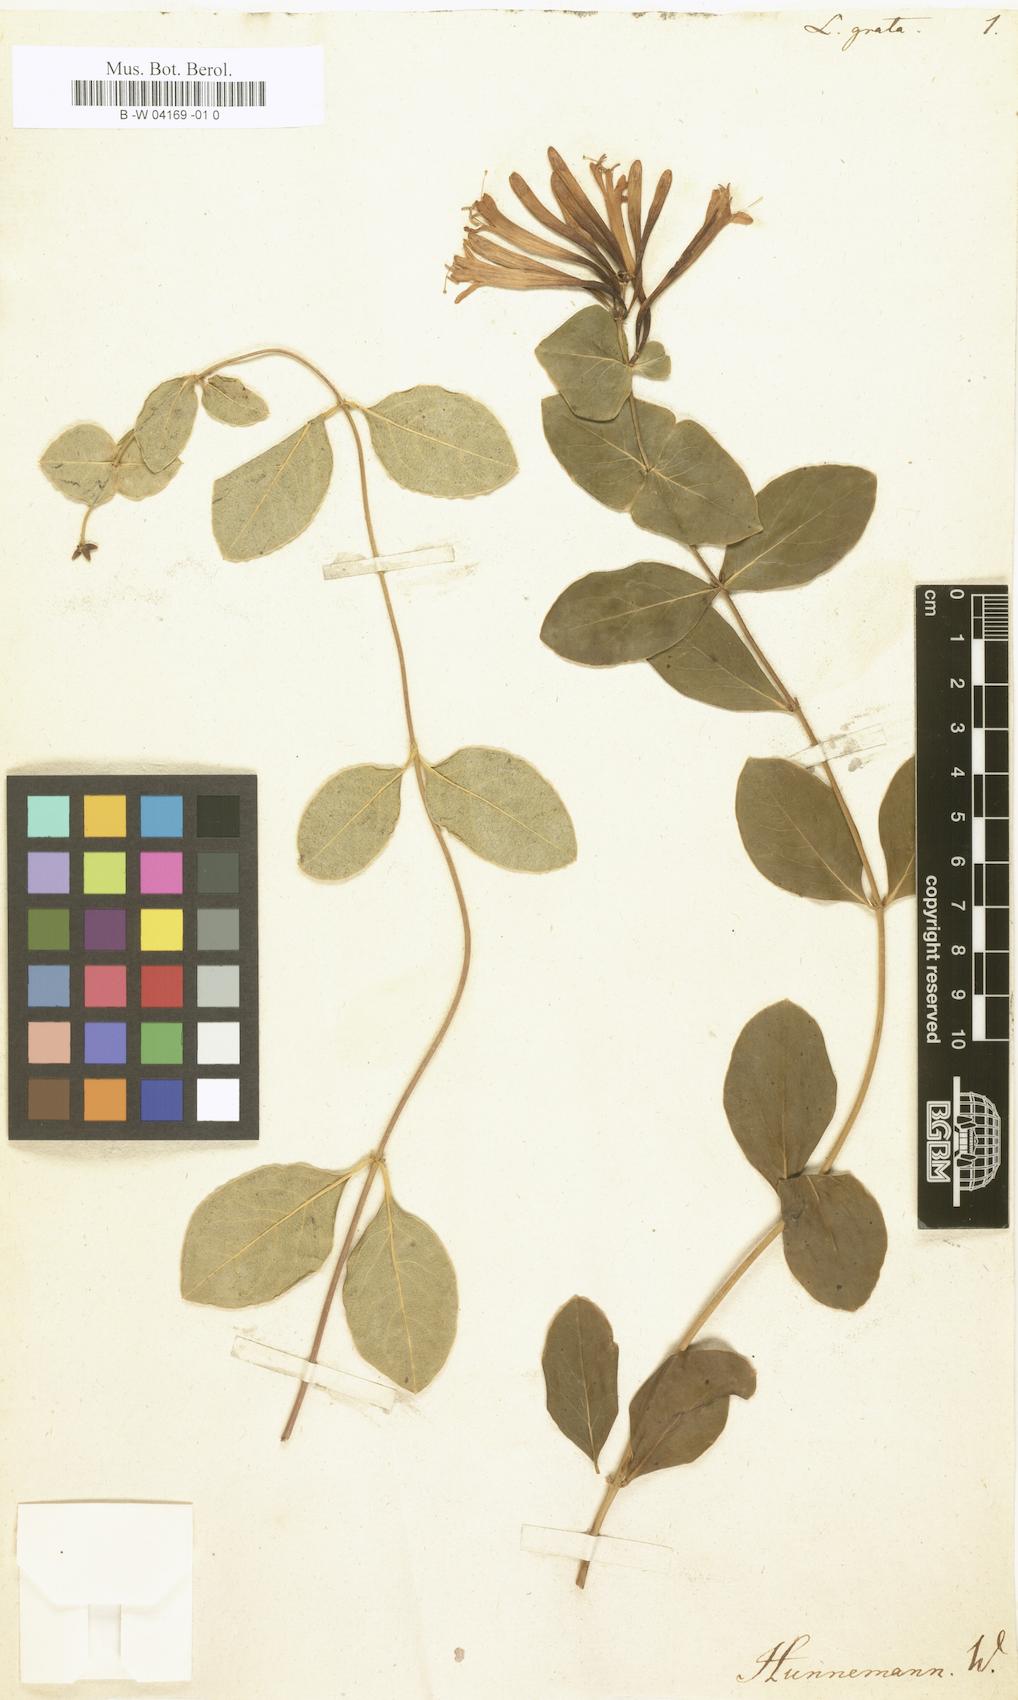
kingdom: Plantae
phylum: Tracheophyta
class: Magnoliopsida
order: Dipsacales
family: Caprifoliaceae
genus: Lonicera
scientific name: Lonicera americana
